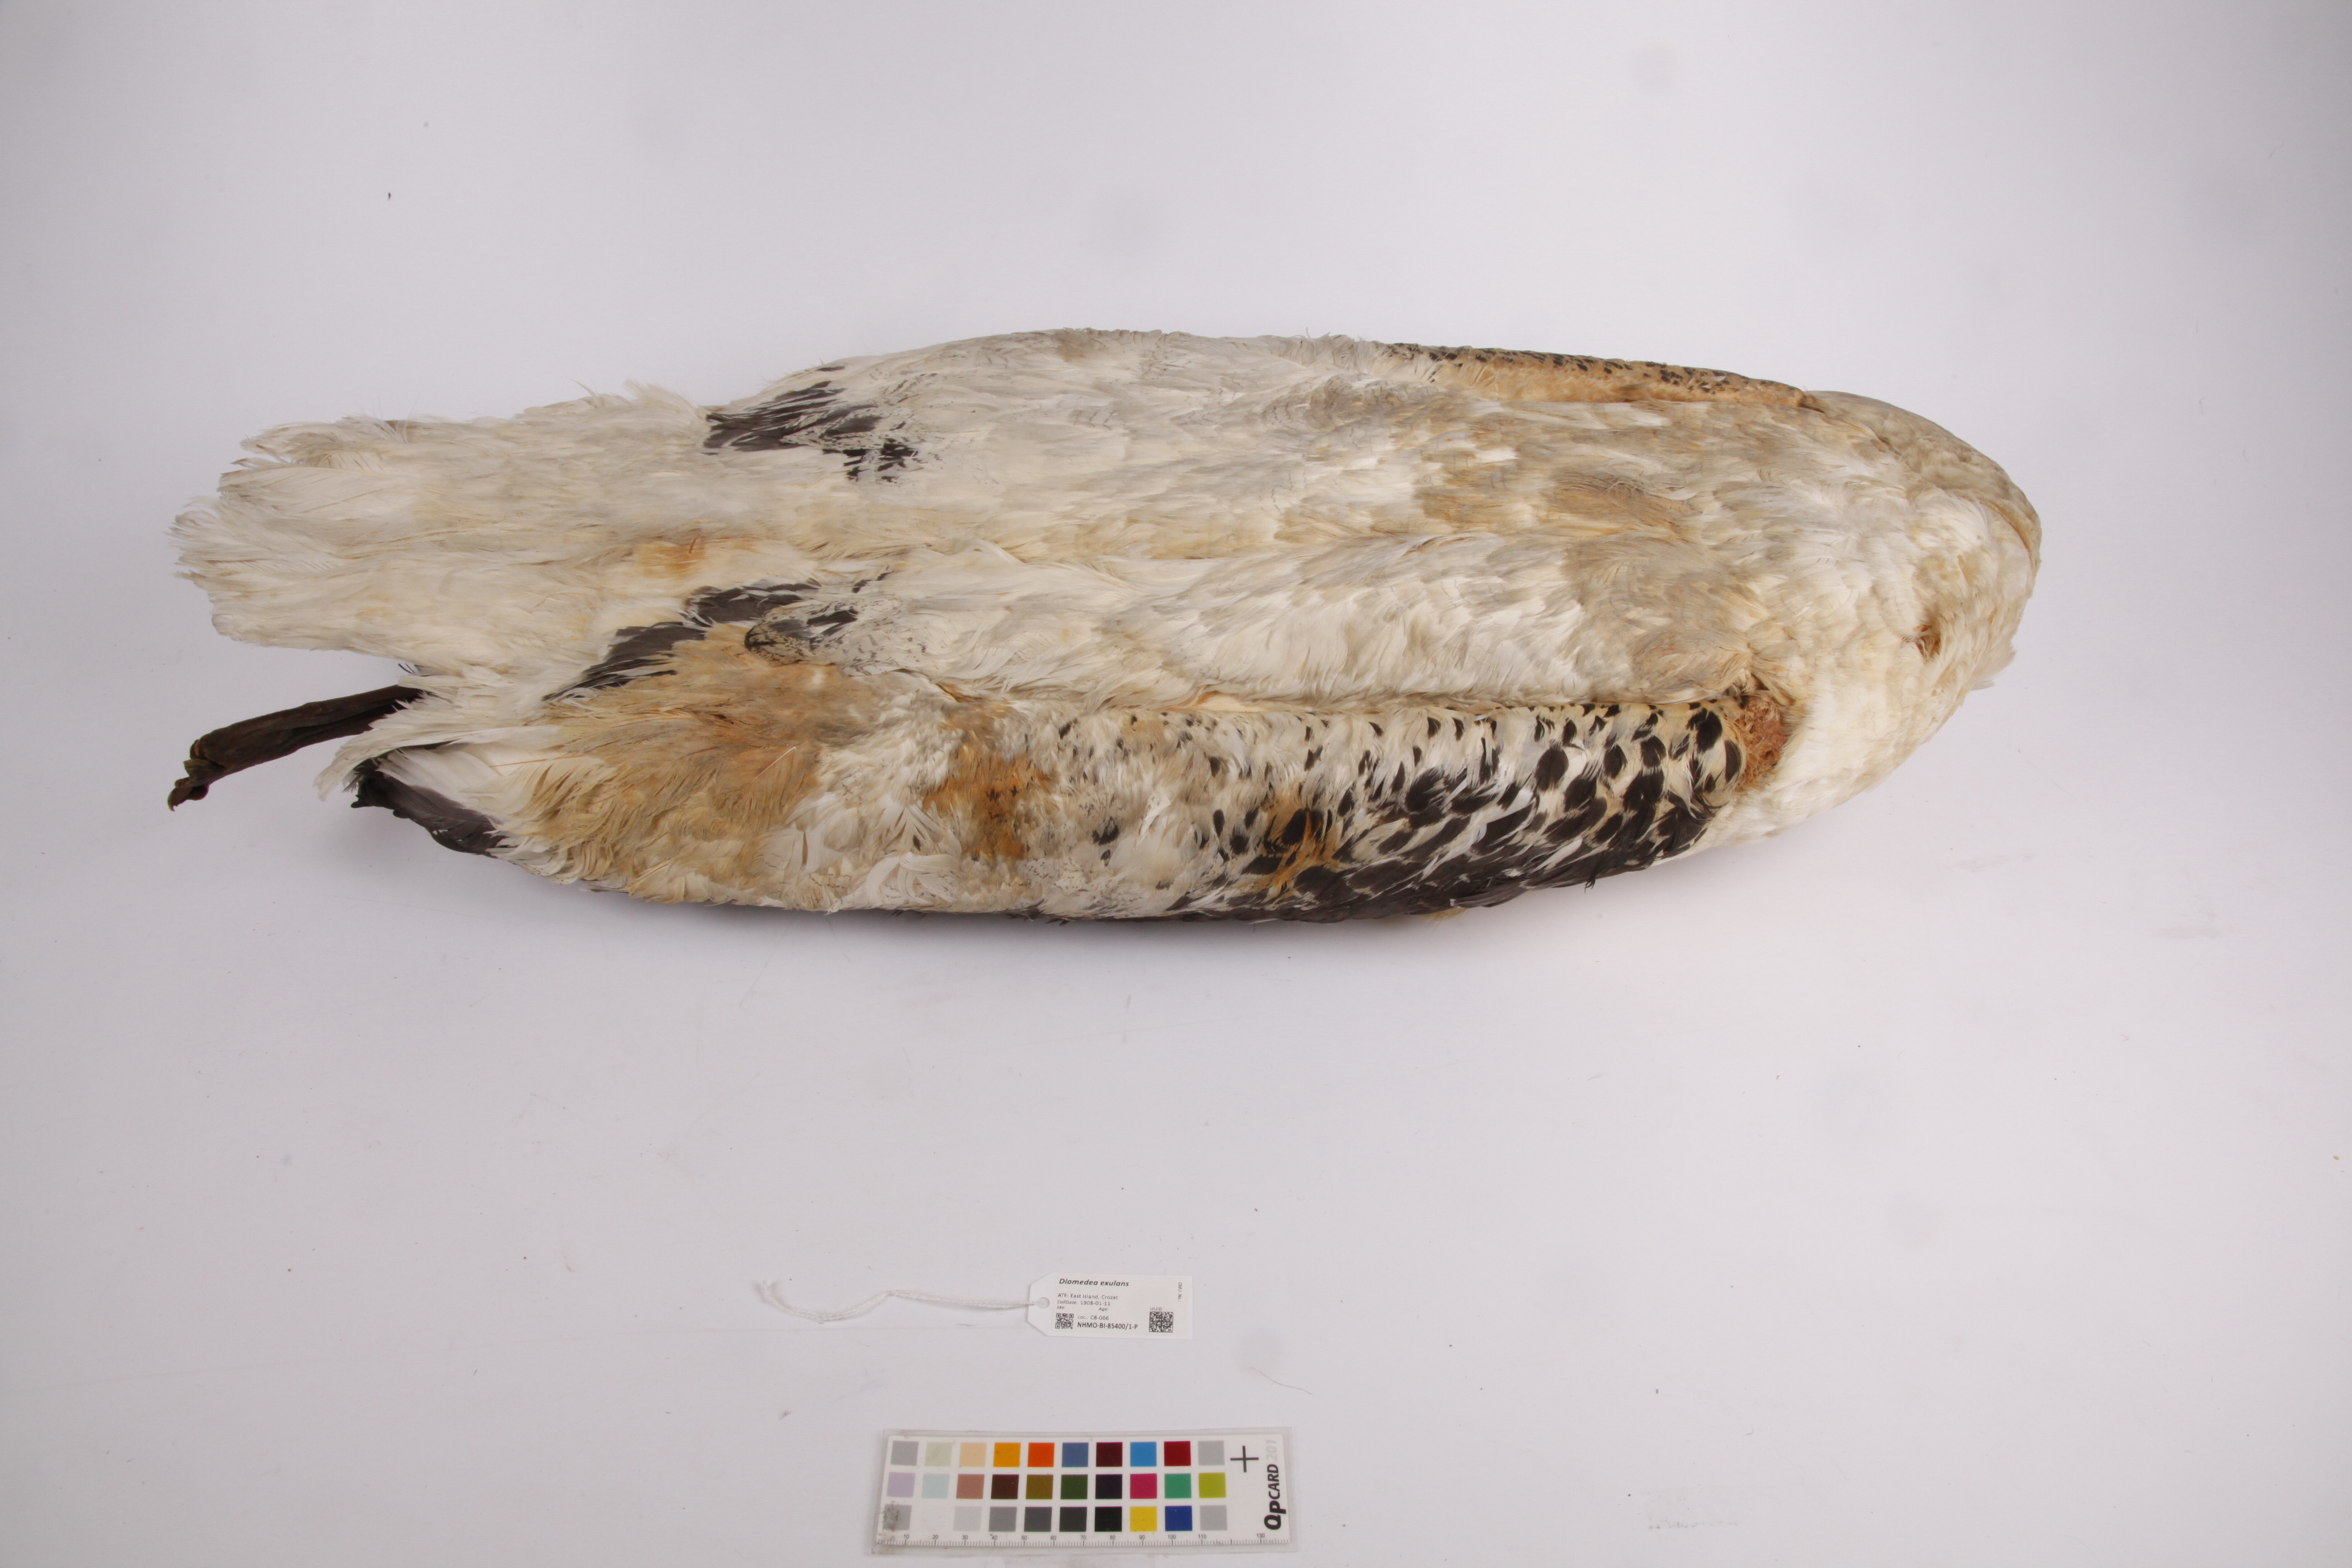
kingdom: Animalia
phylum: Chordata
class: Aves
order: Procellariiformes
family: Diomedeidae
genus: Diomedea
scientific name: Diomedea exulans
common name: Wandering albatross
